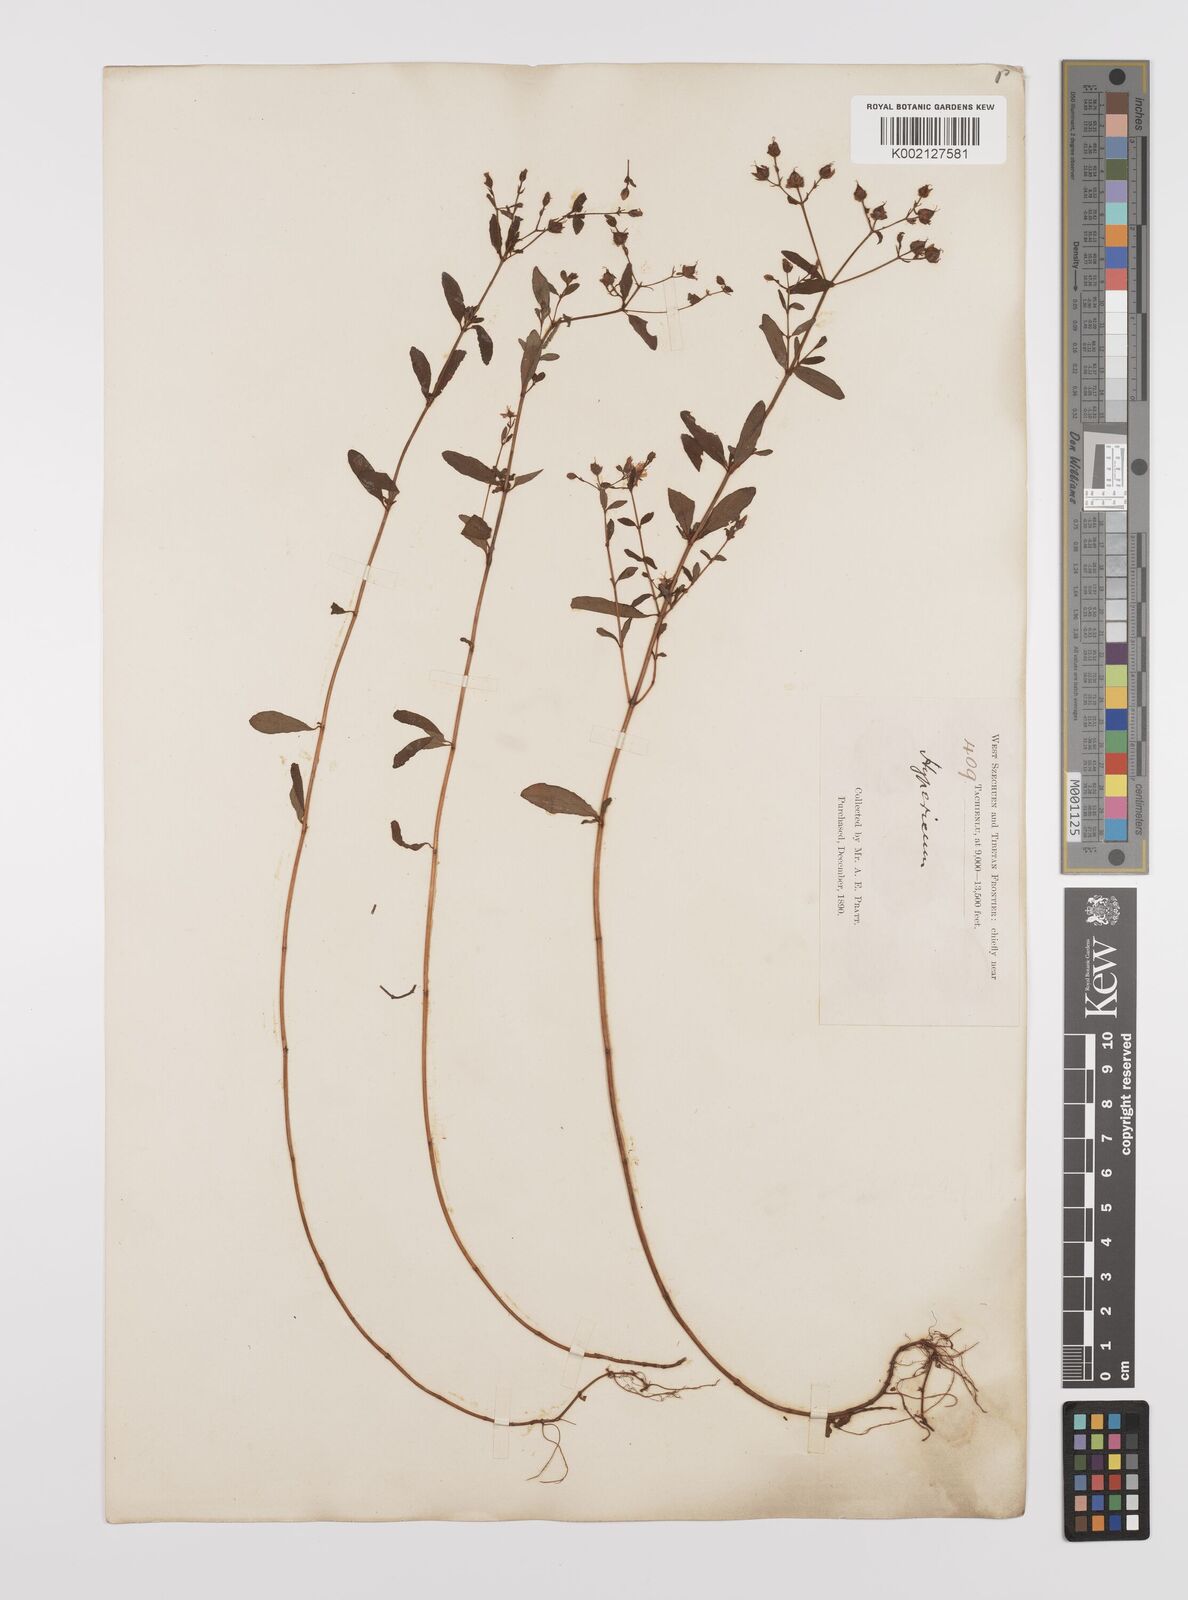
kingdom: Plantae
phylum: Tracheophyta
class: Magnoliopsida
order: Malpighiales
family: Hypericaceae
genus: Hypericum
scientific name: Hypericum petiolulatum
